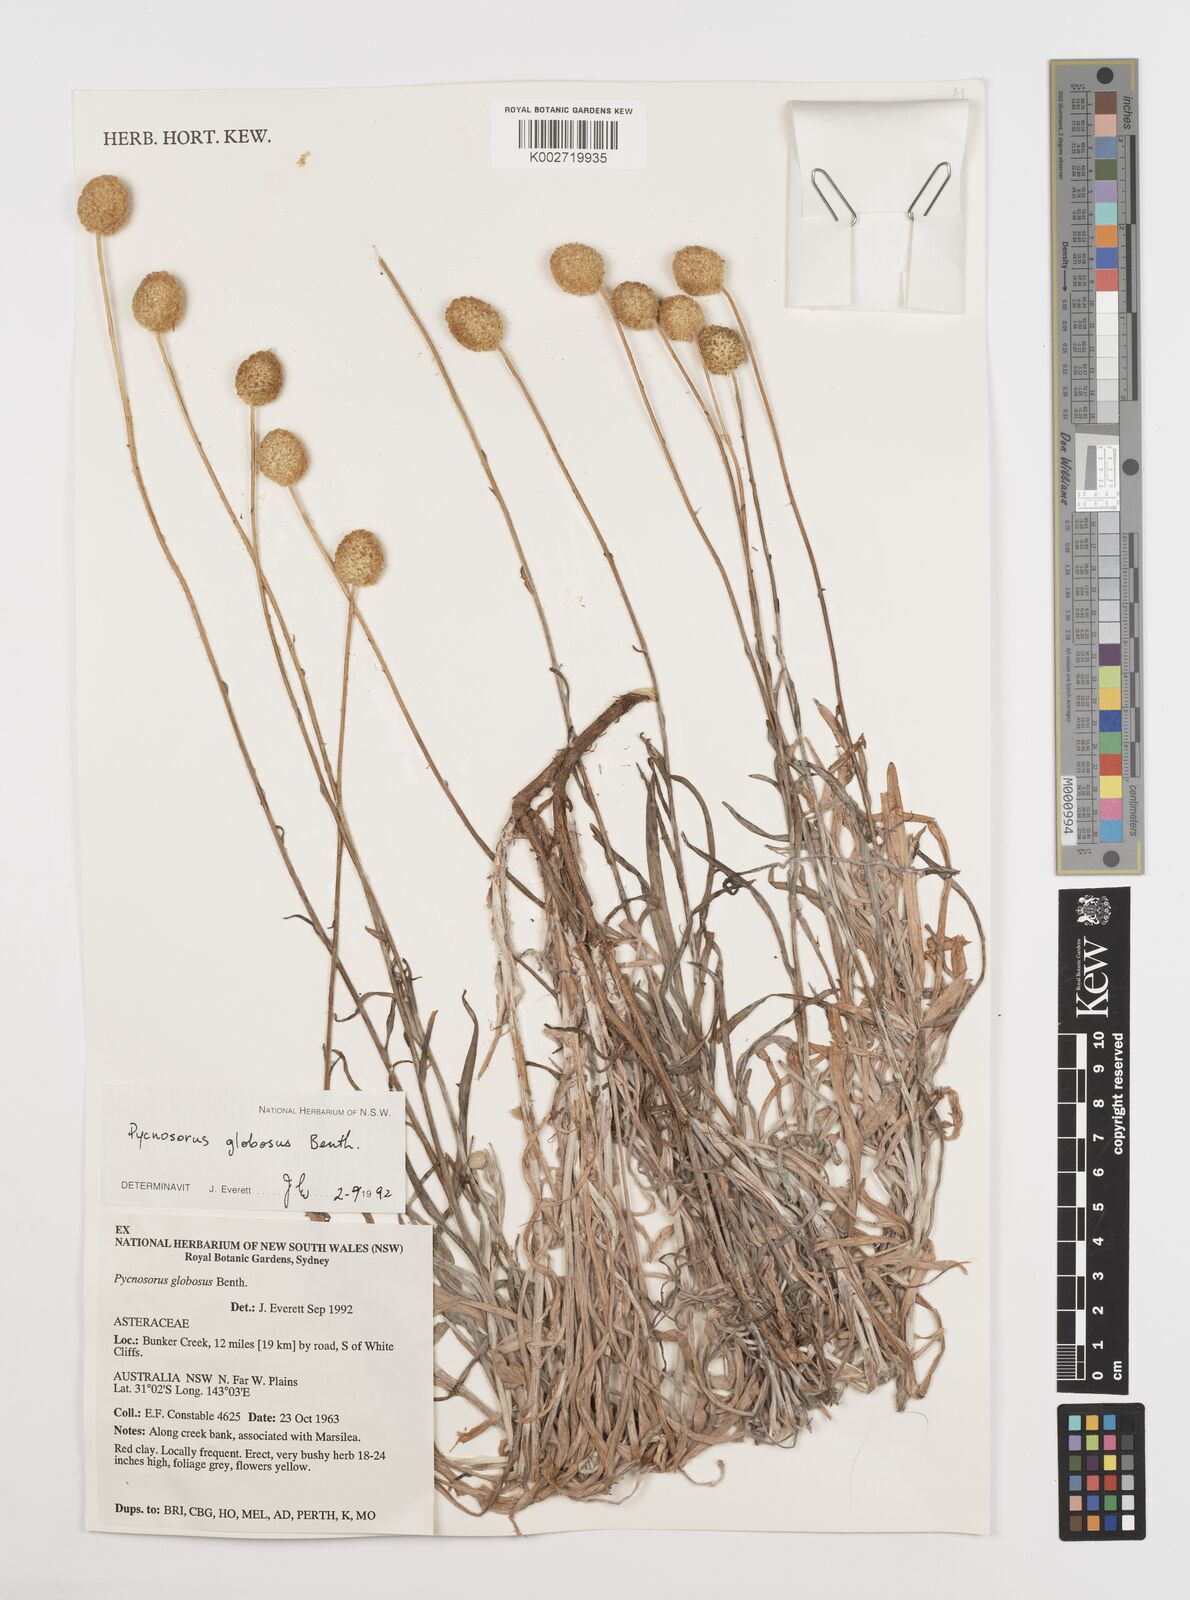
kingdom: Plantae
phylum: Tracheophyta
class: Magnoliopsida
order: Asterales
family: Asteraceae
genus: Pycnosorus
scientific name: Pycnosorus globosus
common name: Drumsticks
